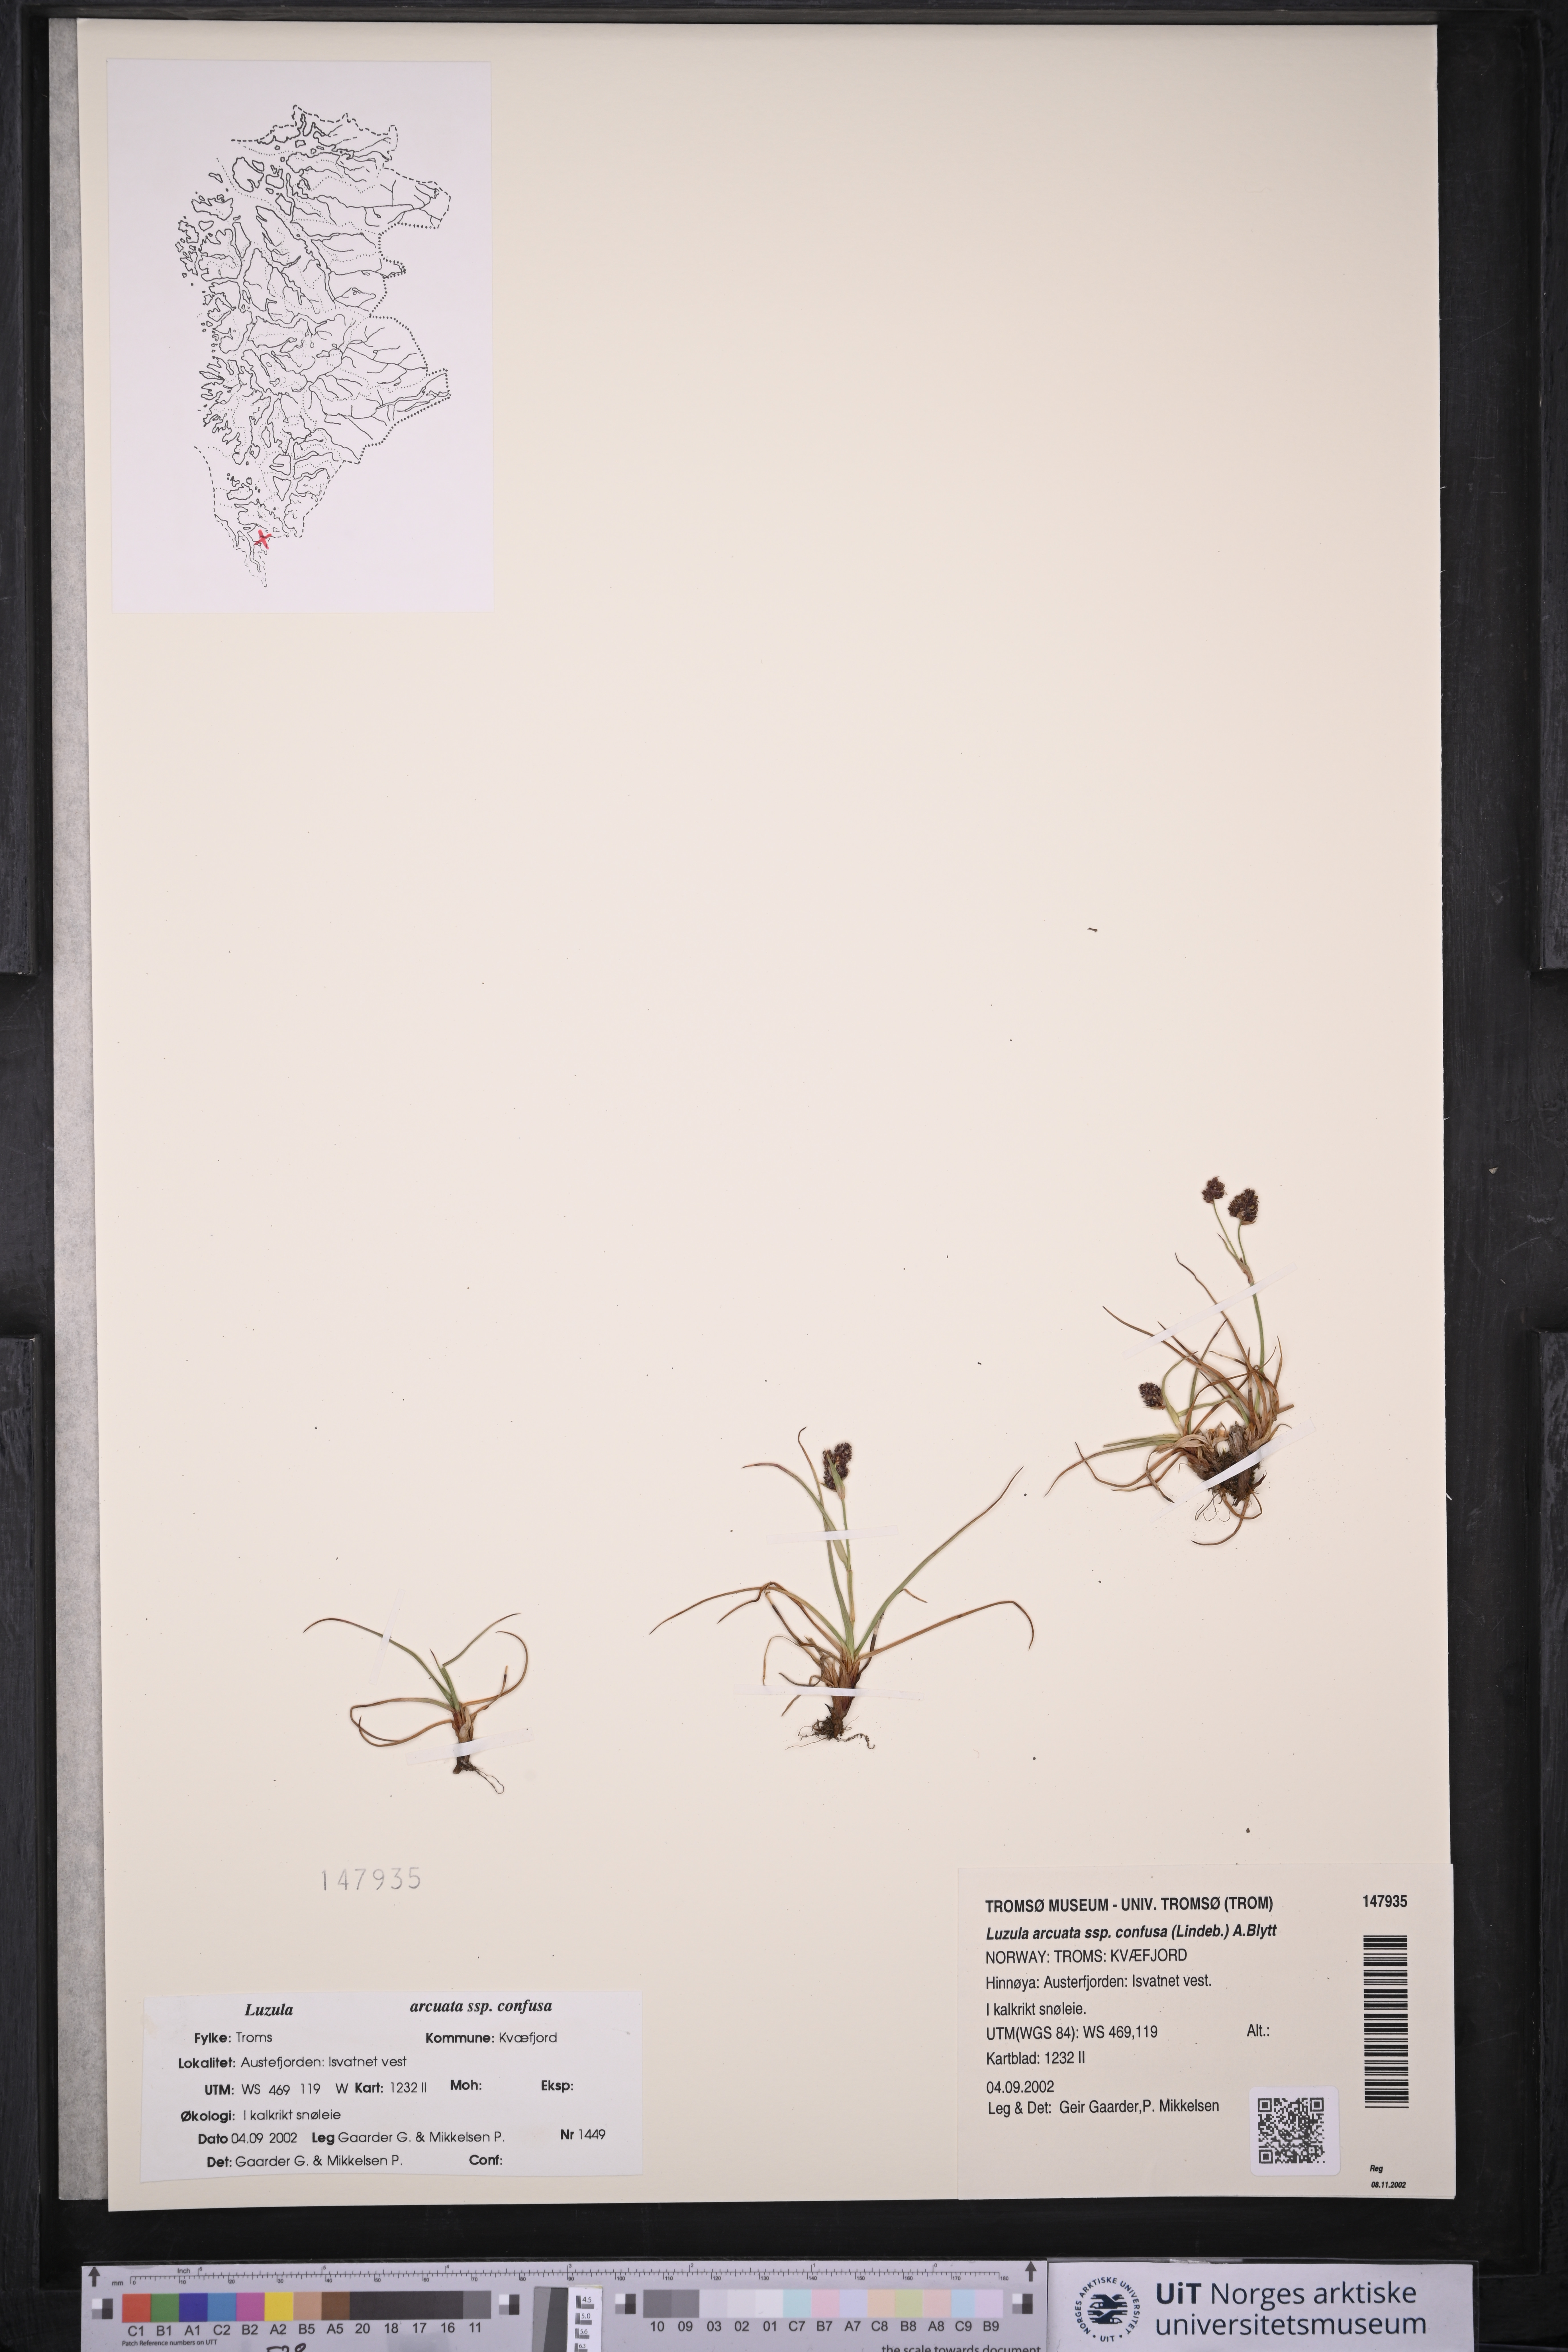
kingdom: Plantae
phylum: Tracheophyta
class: Liliopsida
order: Poales
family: Juncaceae
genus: Luzula
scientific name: Luzula confusa
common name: Northern wood rush
